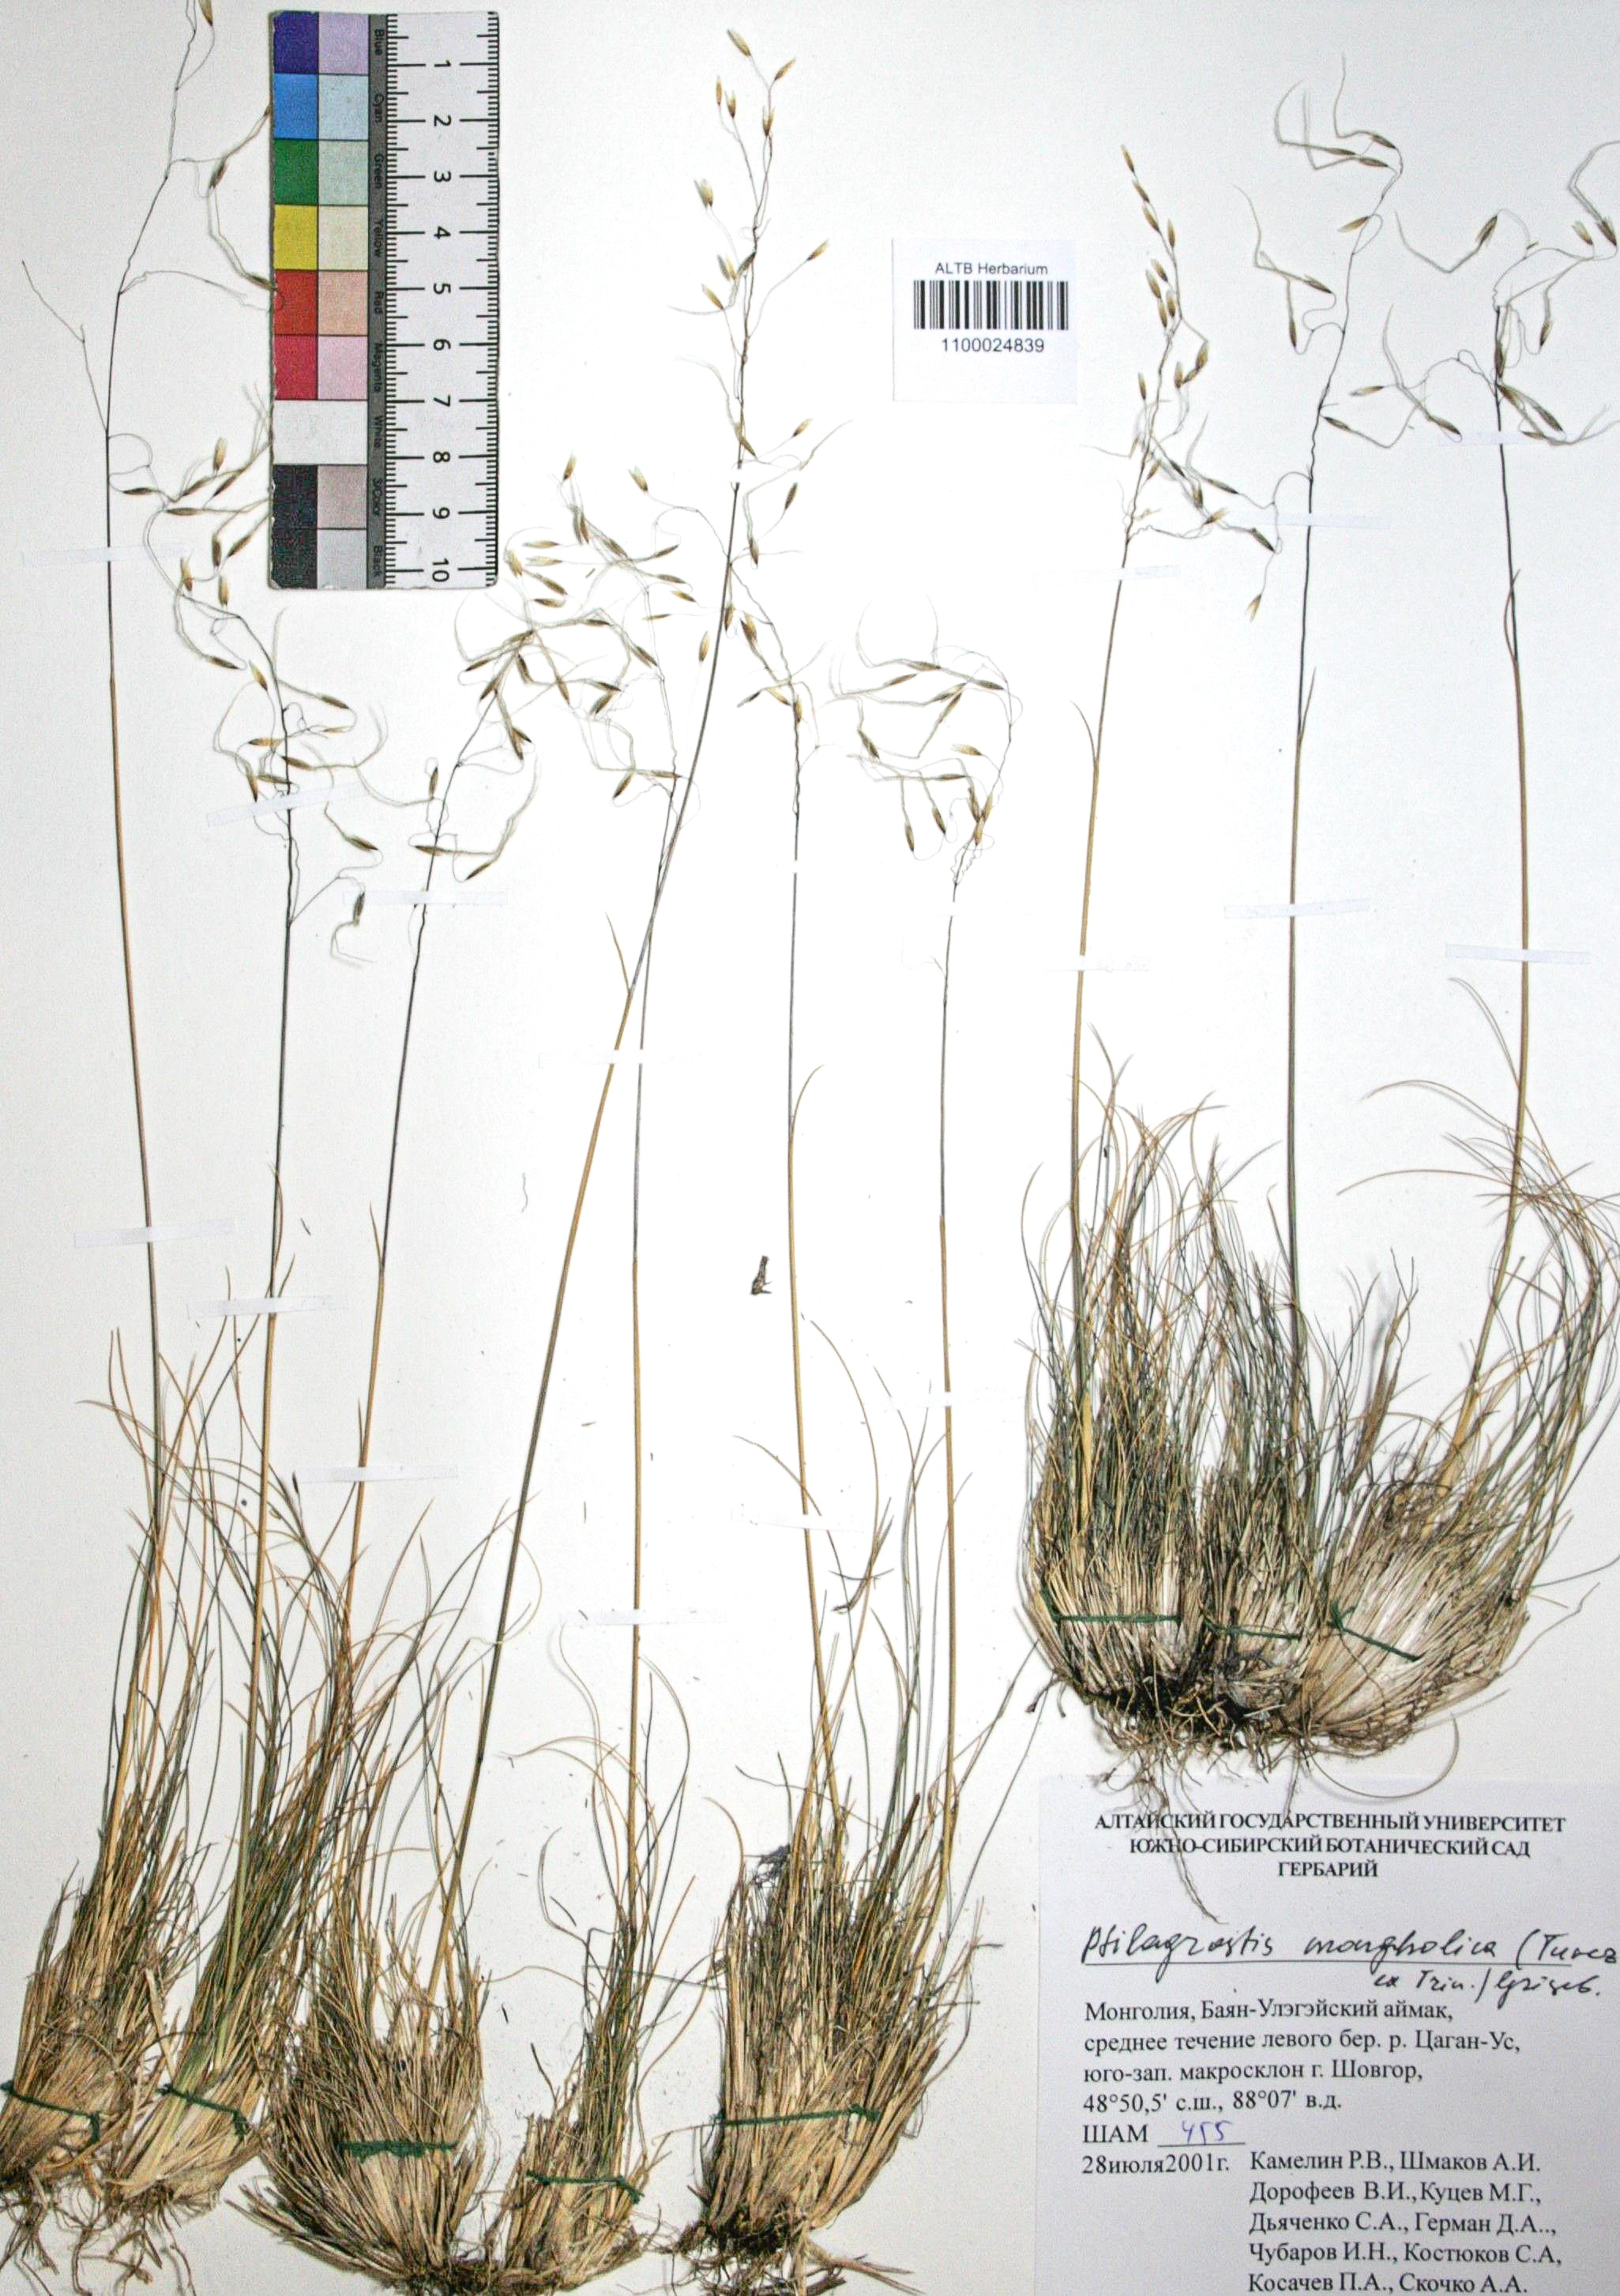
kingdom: Plantae
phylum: Tracheophyta
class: Liliopsida
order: Poales
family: Poaceae
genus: Ptilagrostis
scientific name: Ptilagrostis mongholica
